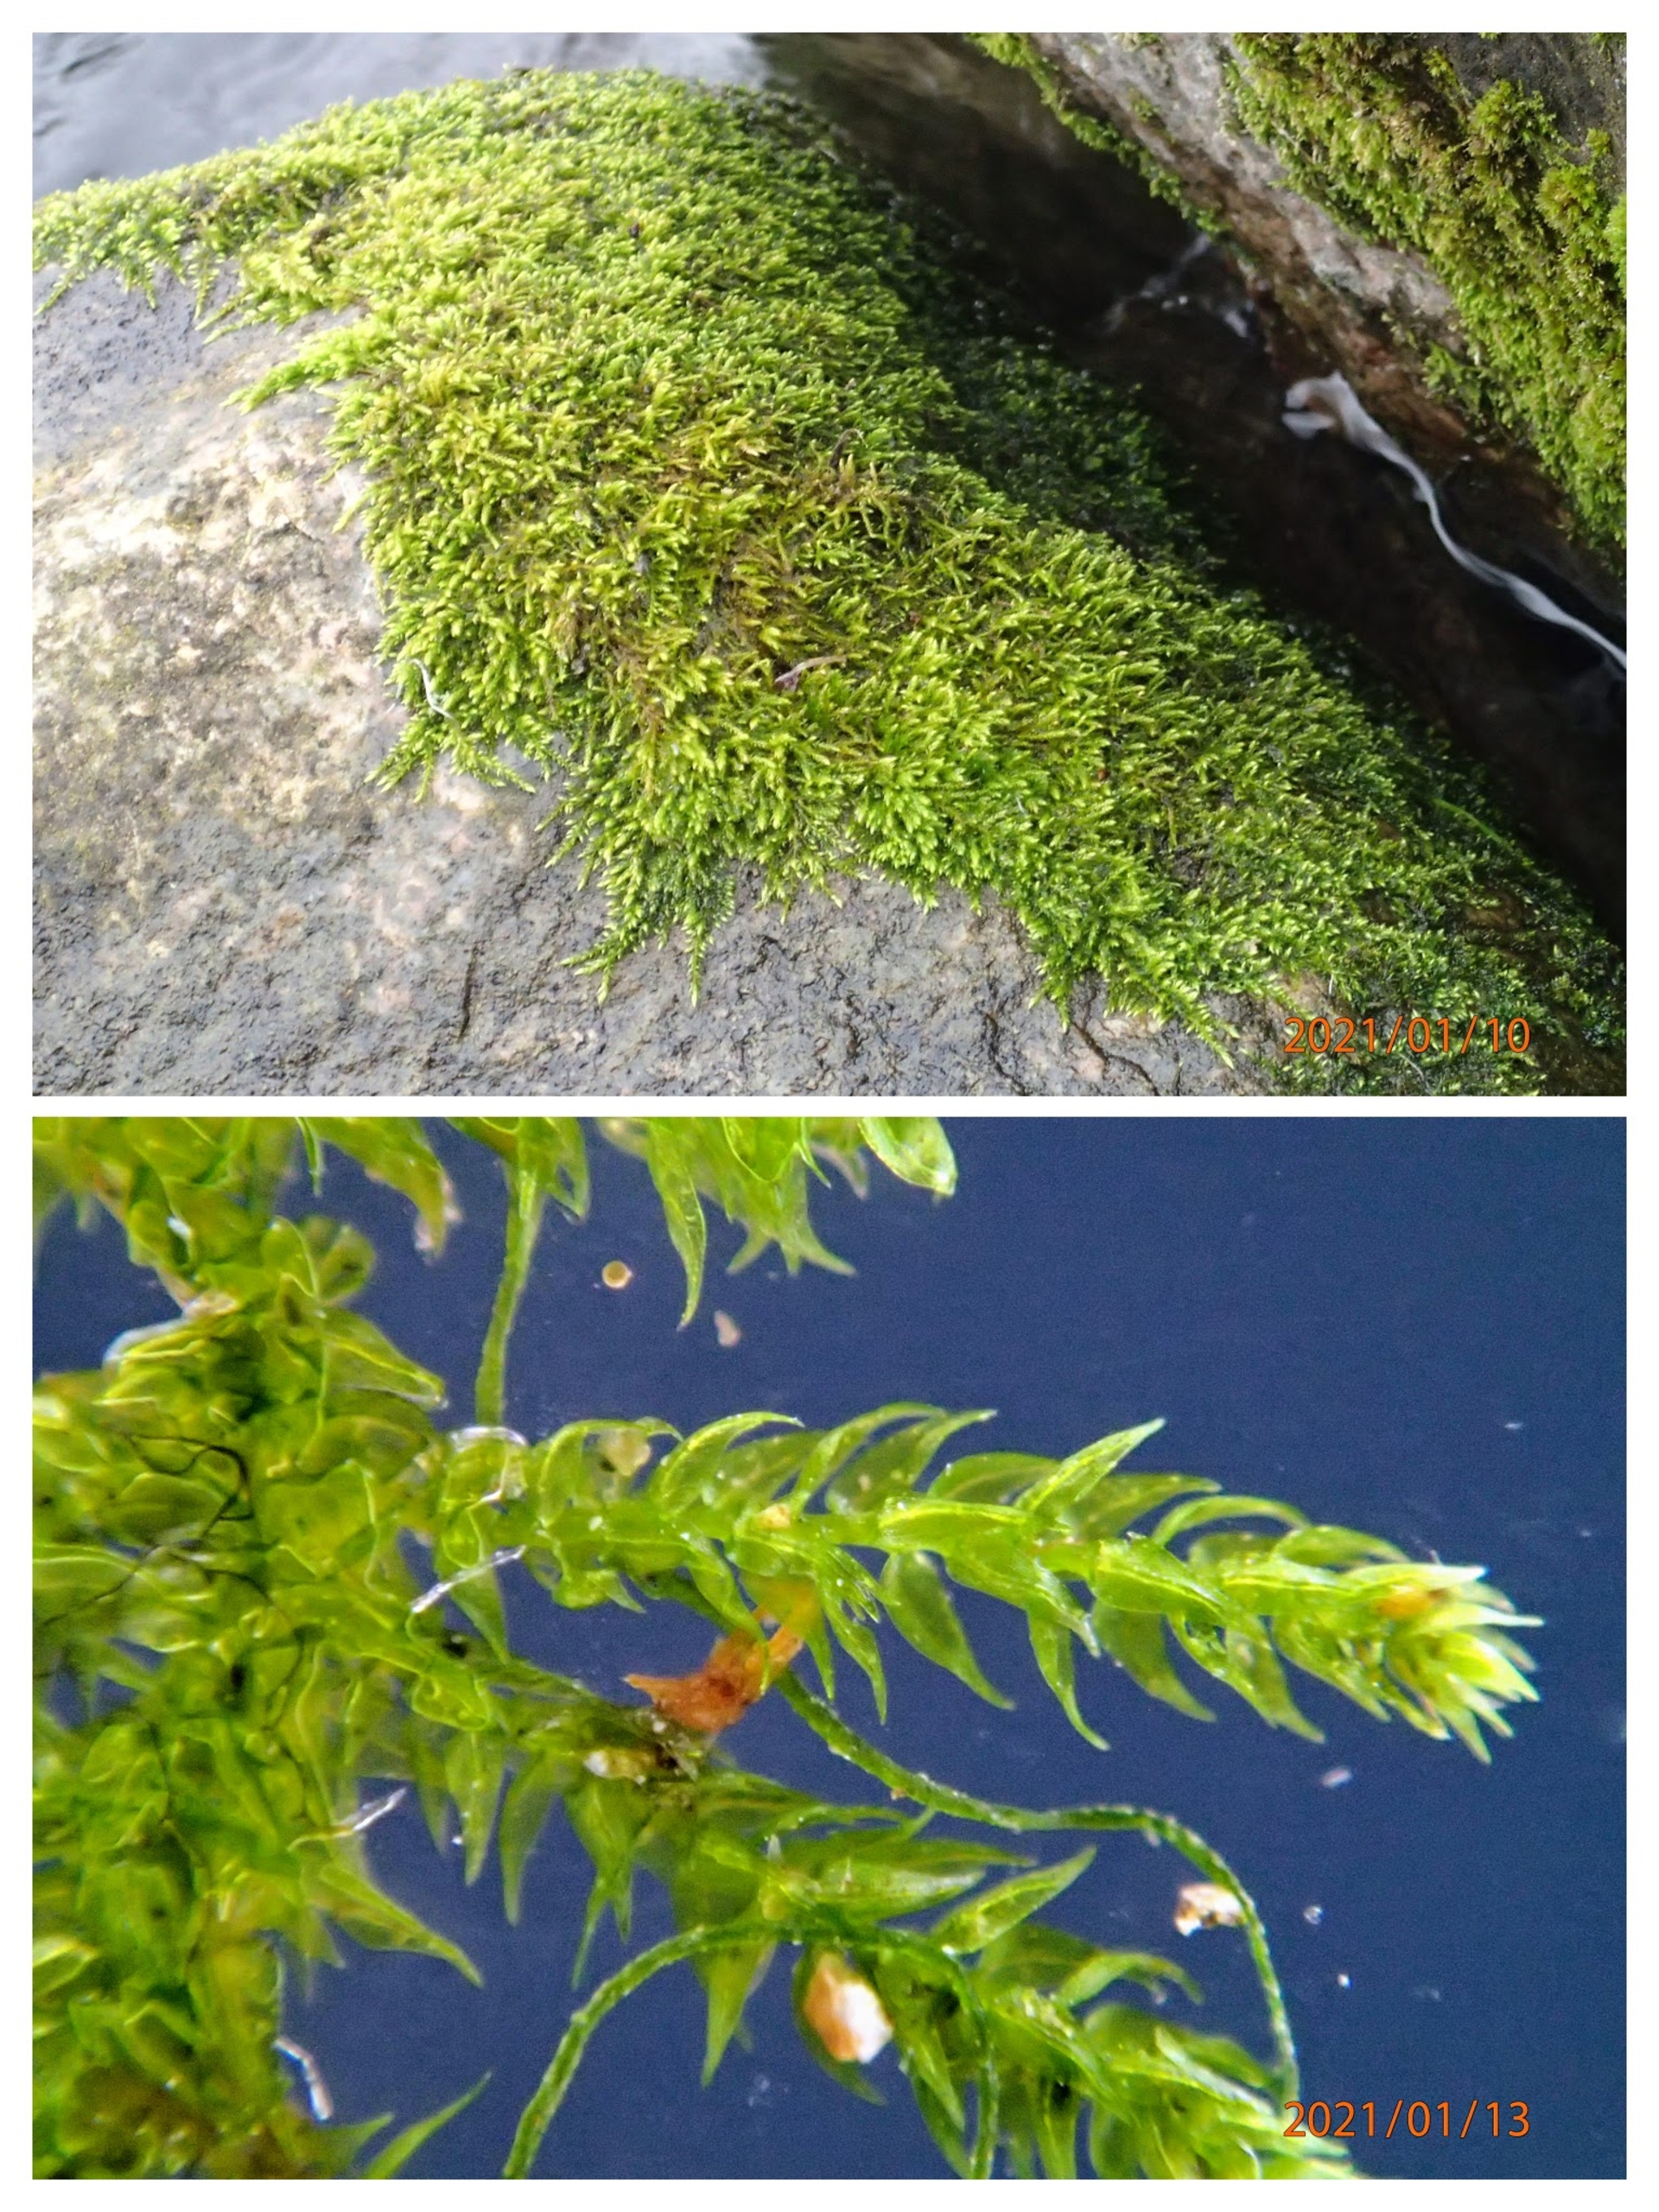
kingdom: Plantae
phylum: Bryophyta
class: Bryopsida
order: Hypnales
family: Amblystegiaceae
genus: Hygroamblystegium
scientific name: Hygroamblystegium varium
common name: Bugtet vandkrybmos
